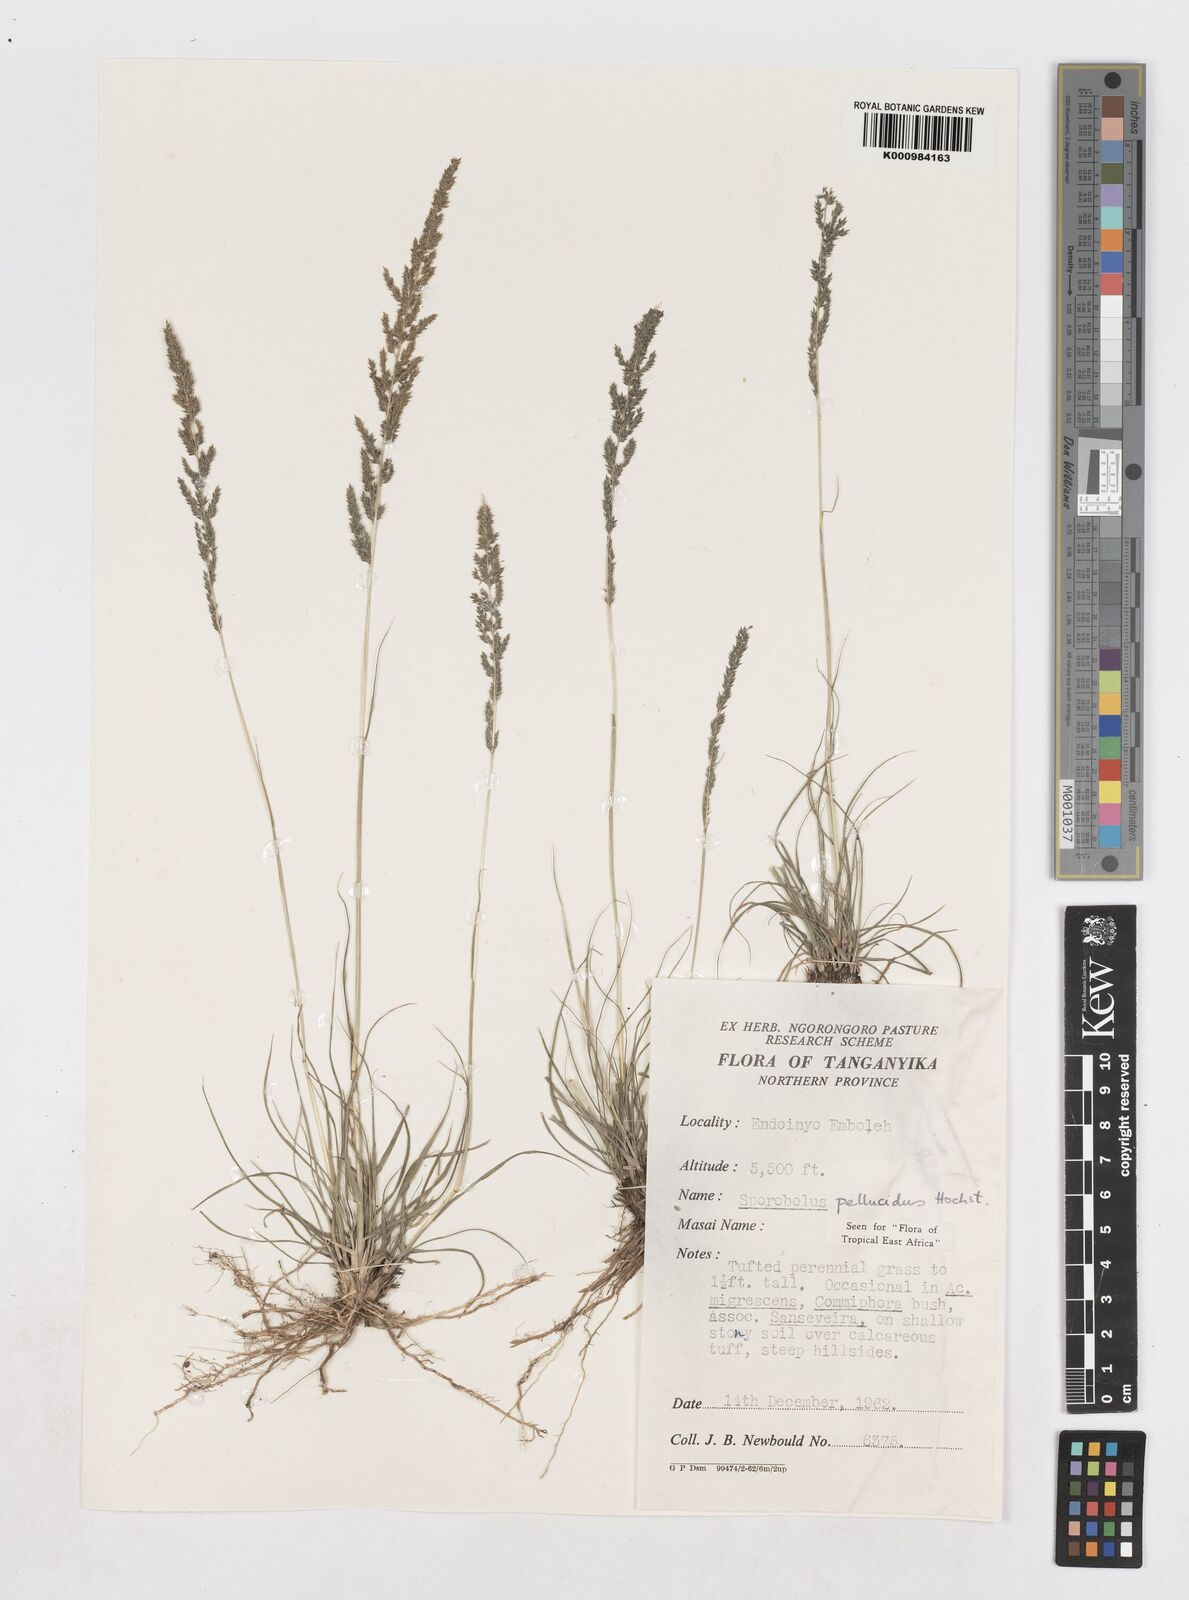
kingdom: Plantae
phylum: Tracheophyta
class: Liliopsida
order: Poales
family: Poaceae
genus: Sporobolus
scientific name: Sporobolus pellucidus
